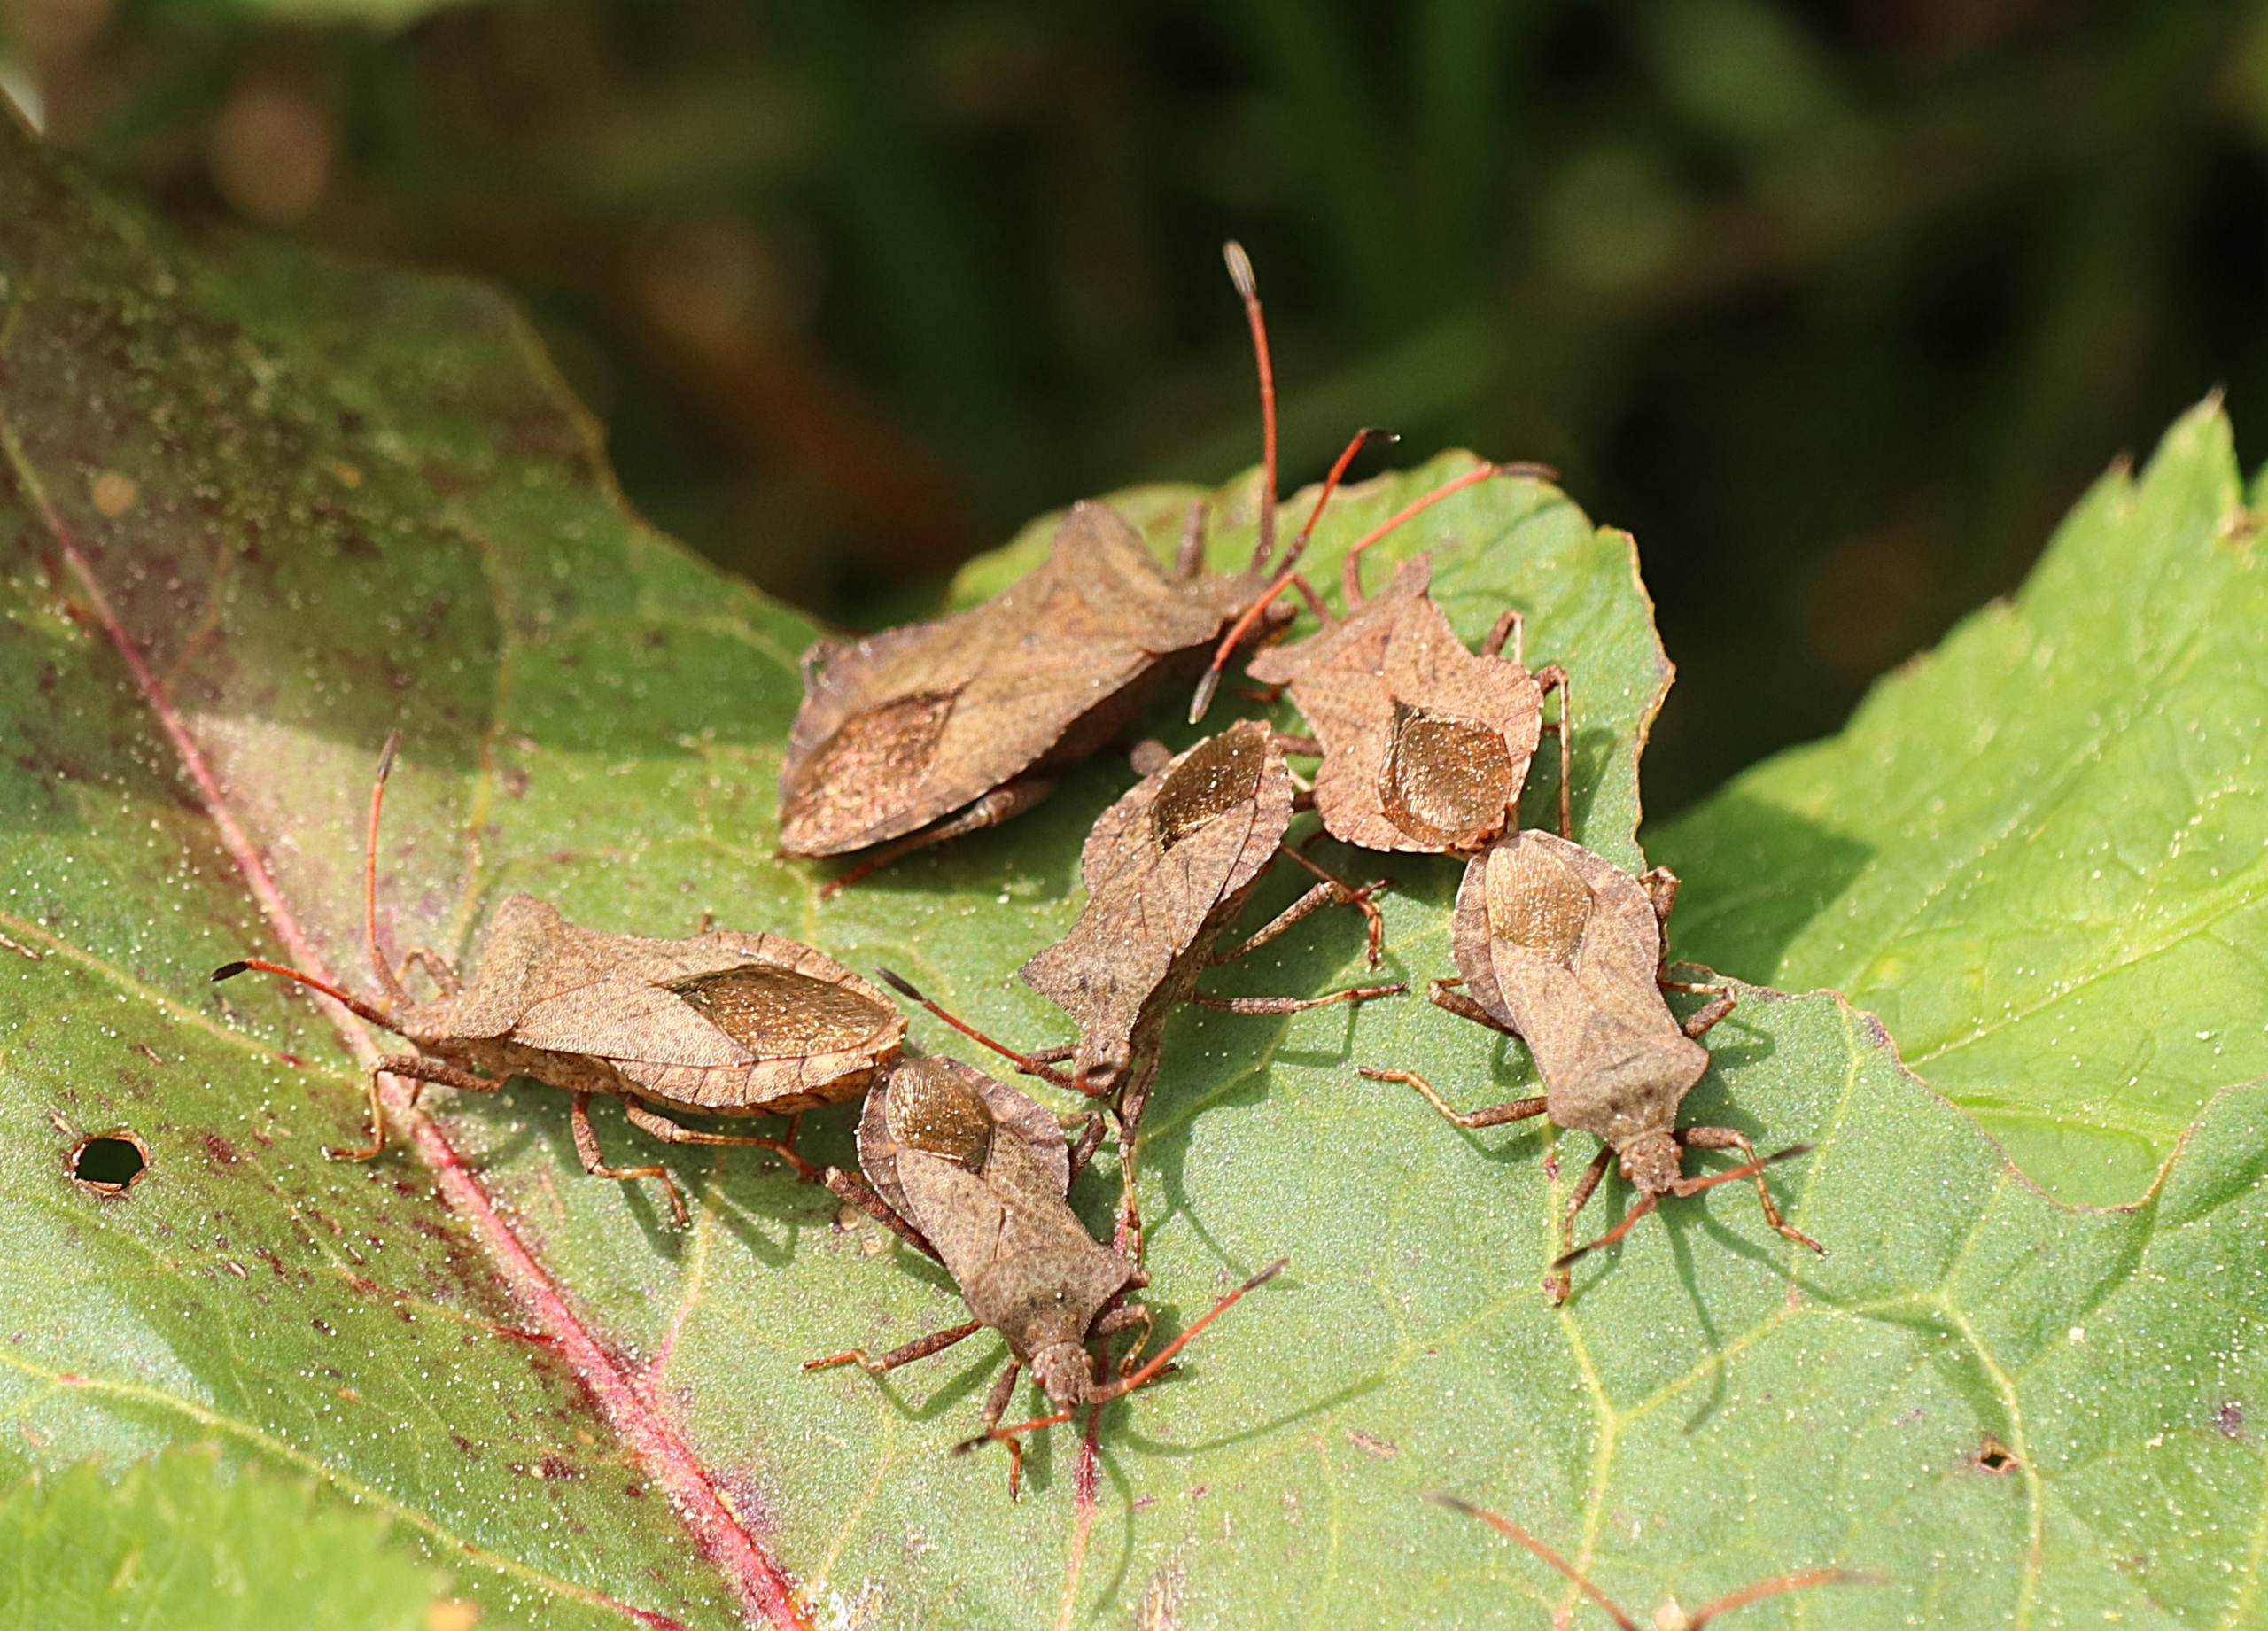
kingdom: Animalia
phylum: Arthropoda
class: Insecta
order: Hemiptera
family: Coreidae
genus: Coreus
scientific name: Coreus marginatus
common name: Skræppetæge
